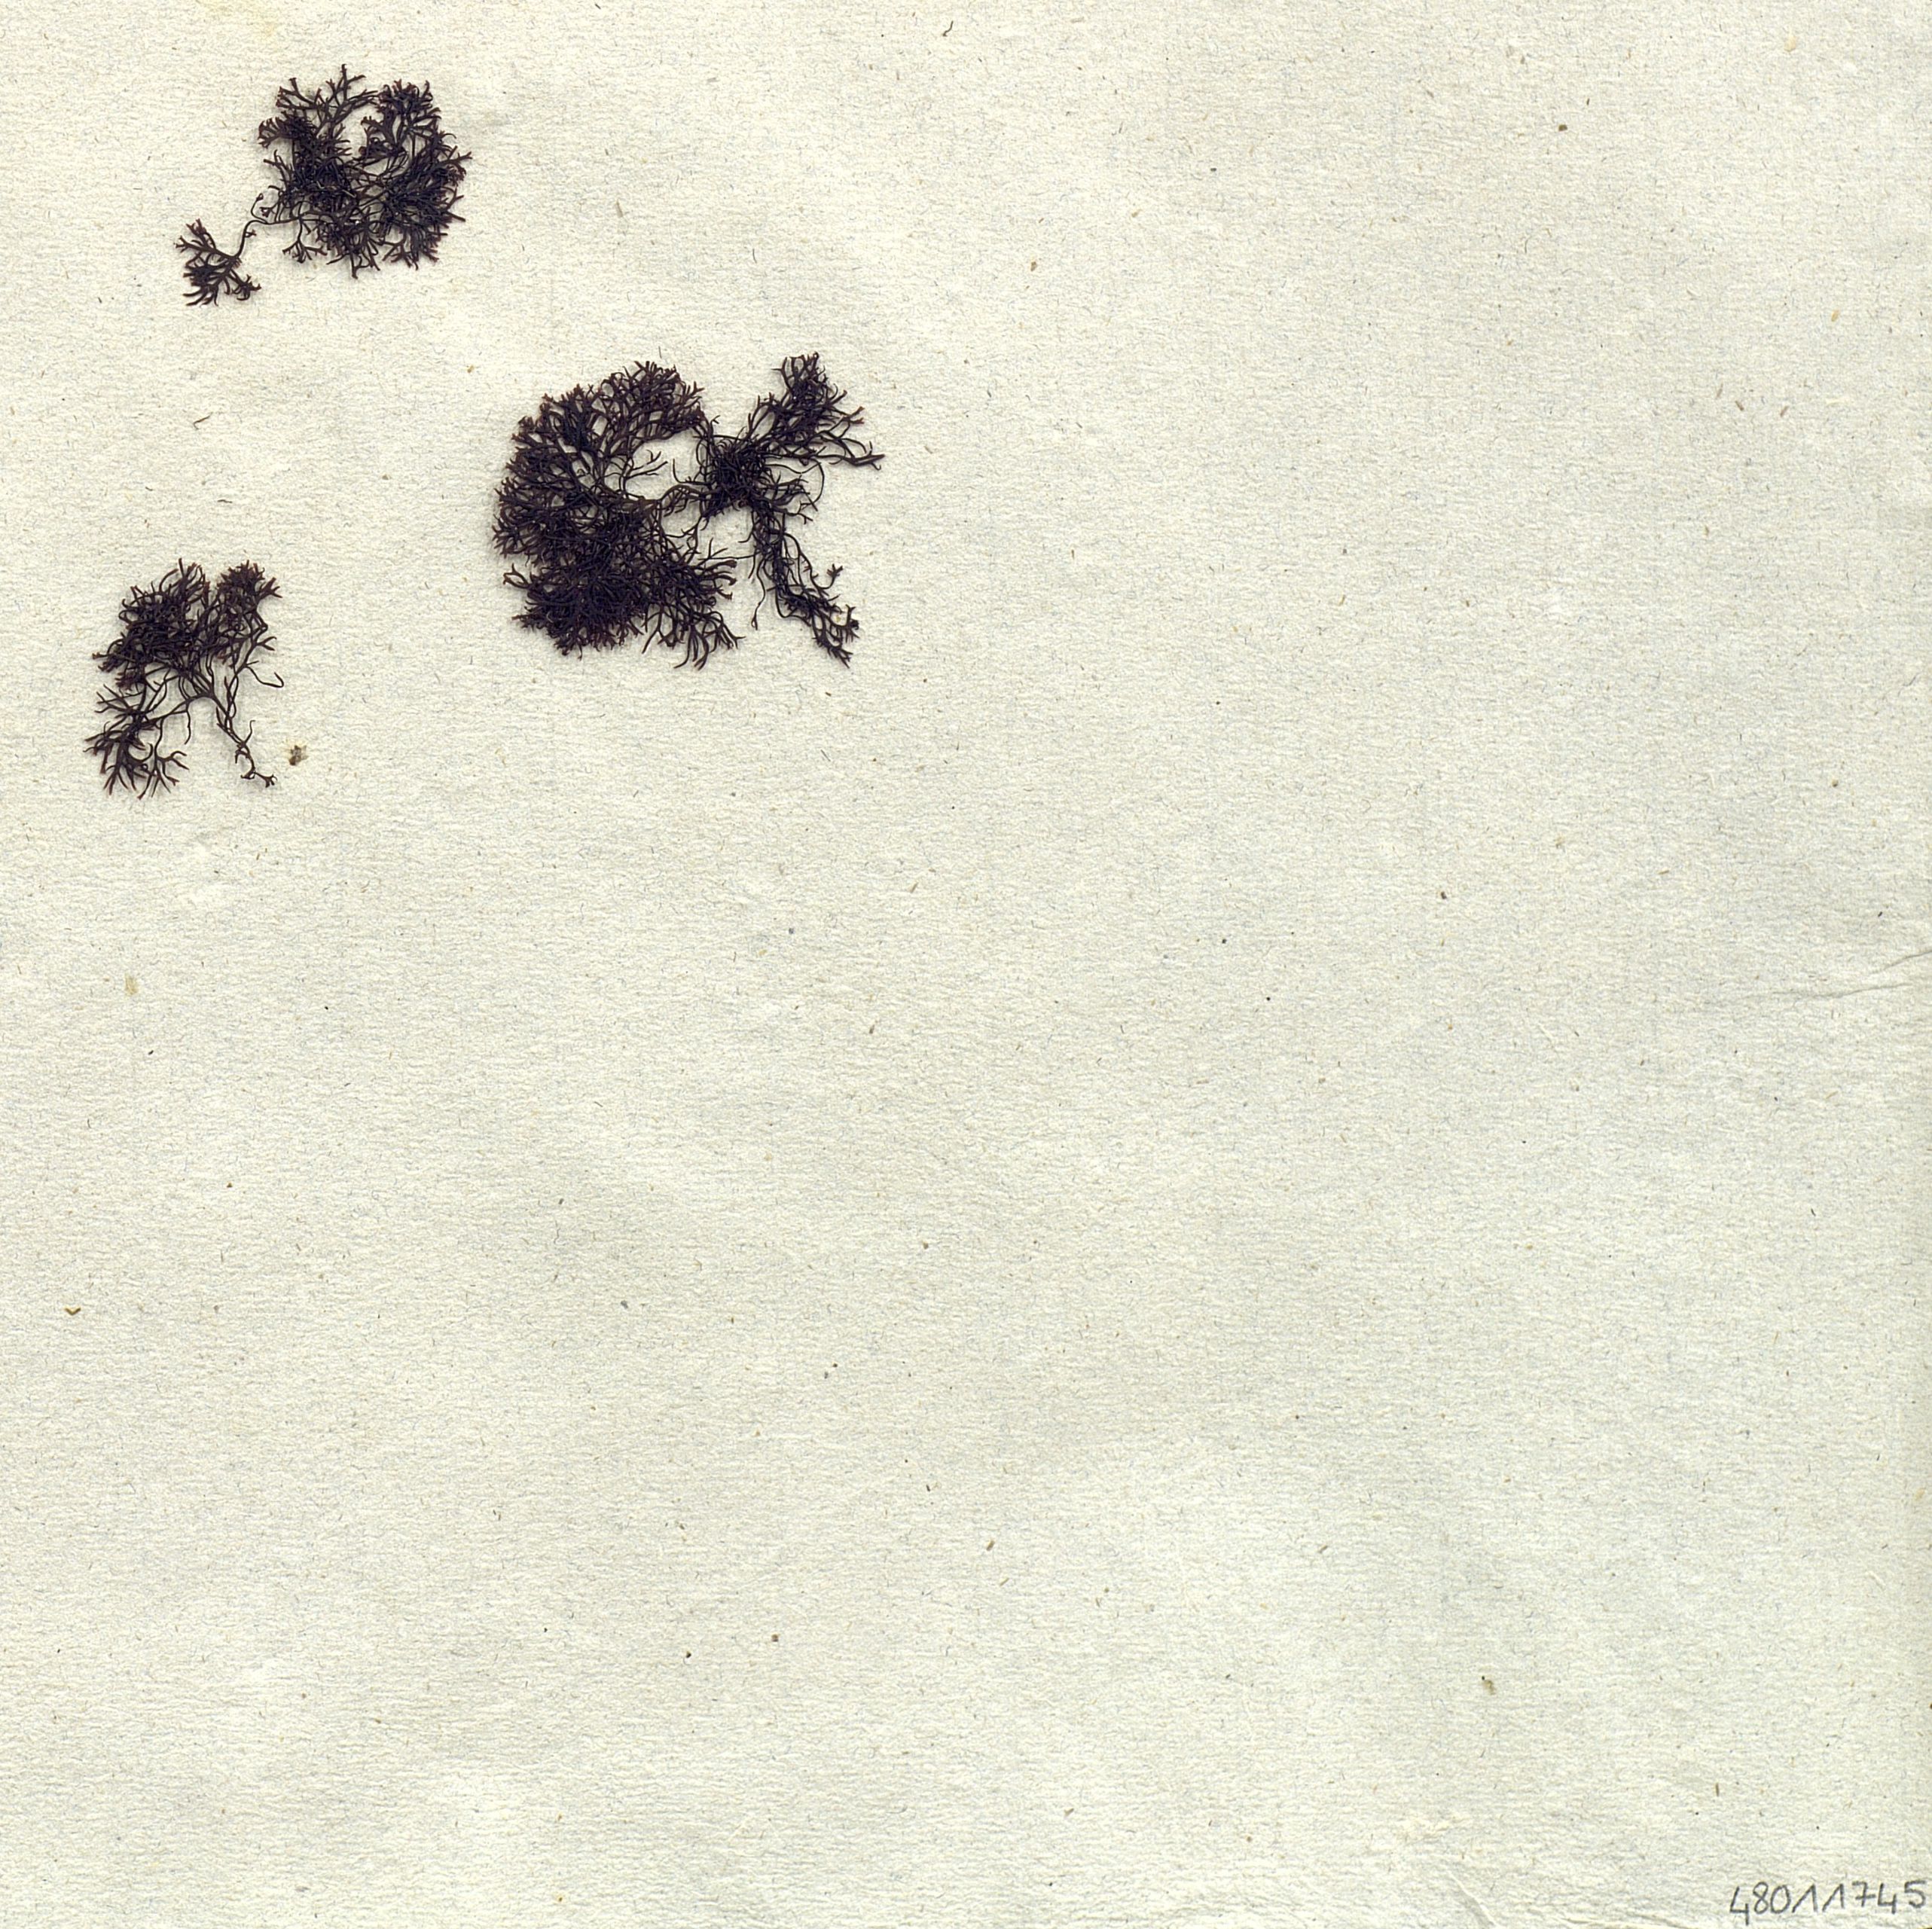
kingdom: Plantae
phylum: Rhodophyta
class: Florideophyceae
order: Ceramiales
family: Ceramiaceae
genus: Ceramium
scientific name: Ceramium
